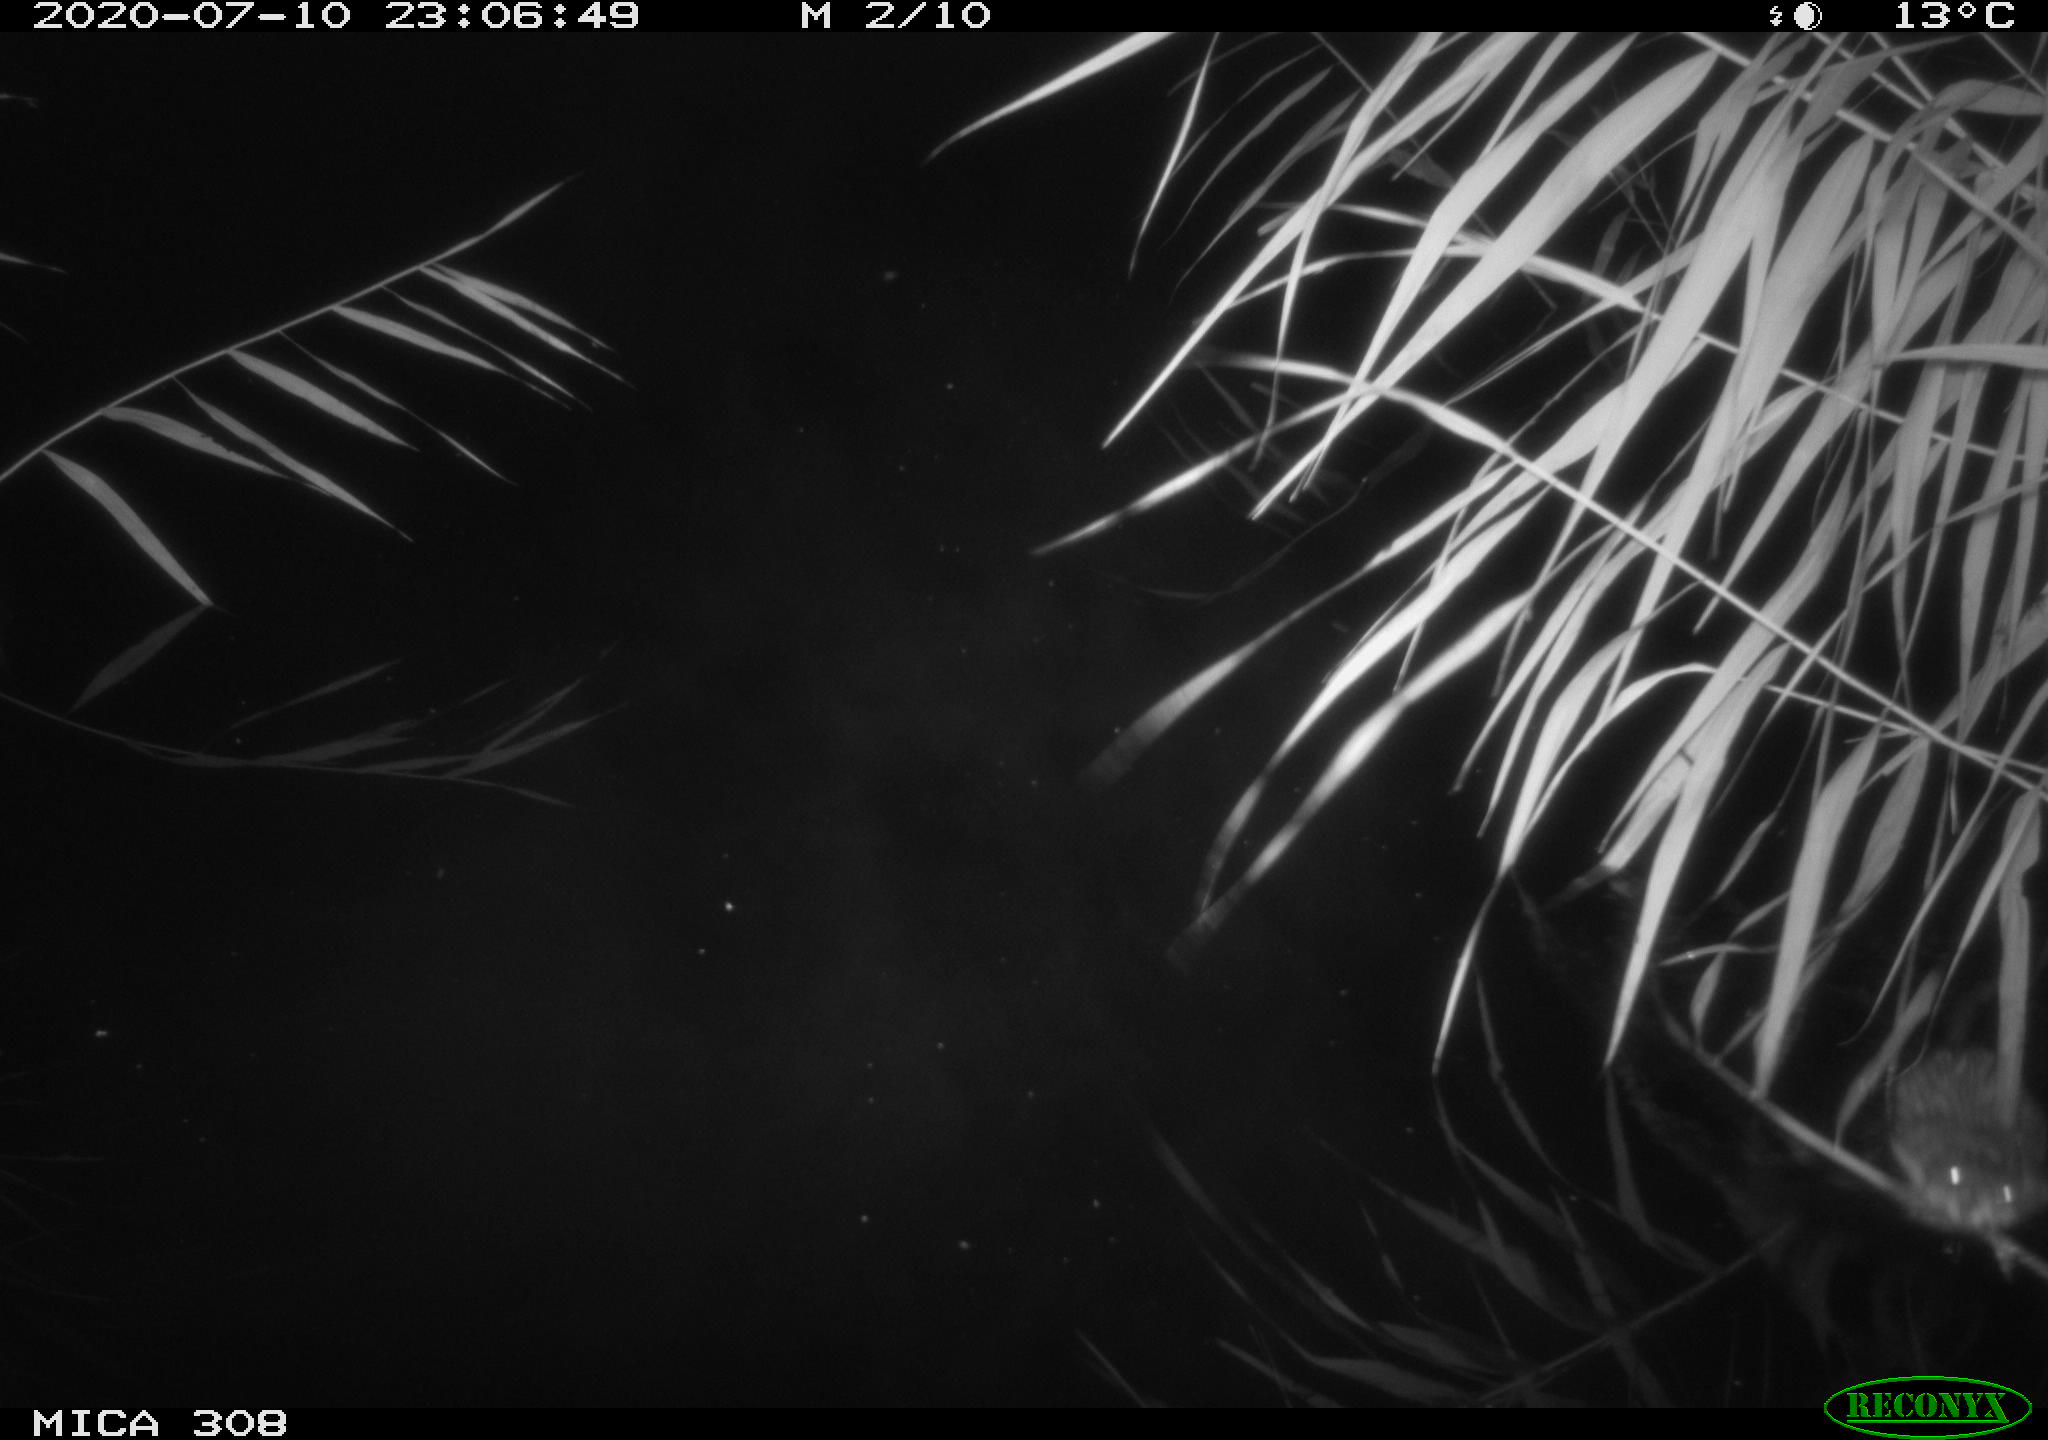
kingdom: Animalia
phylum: Chordata
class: Mammalia
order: Rodentia
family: Muridae
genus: Rattus
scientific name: Rattus norvegicus
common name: Brown rat
